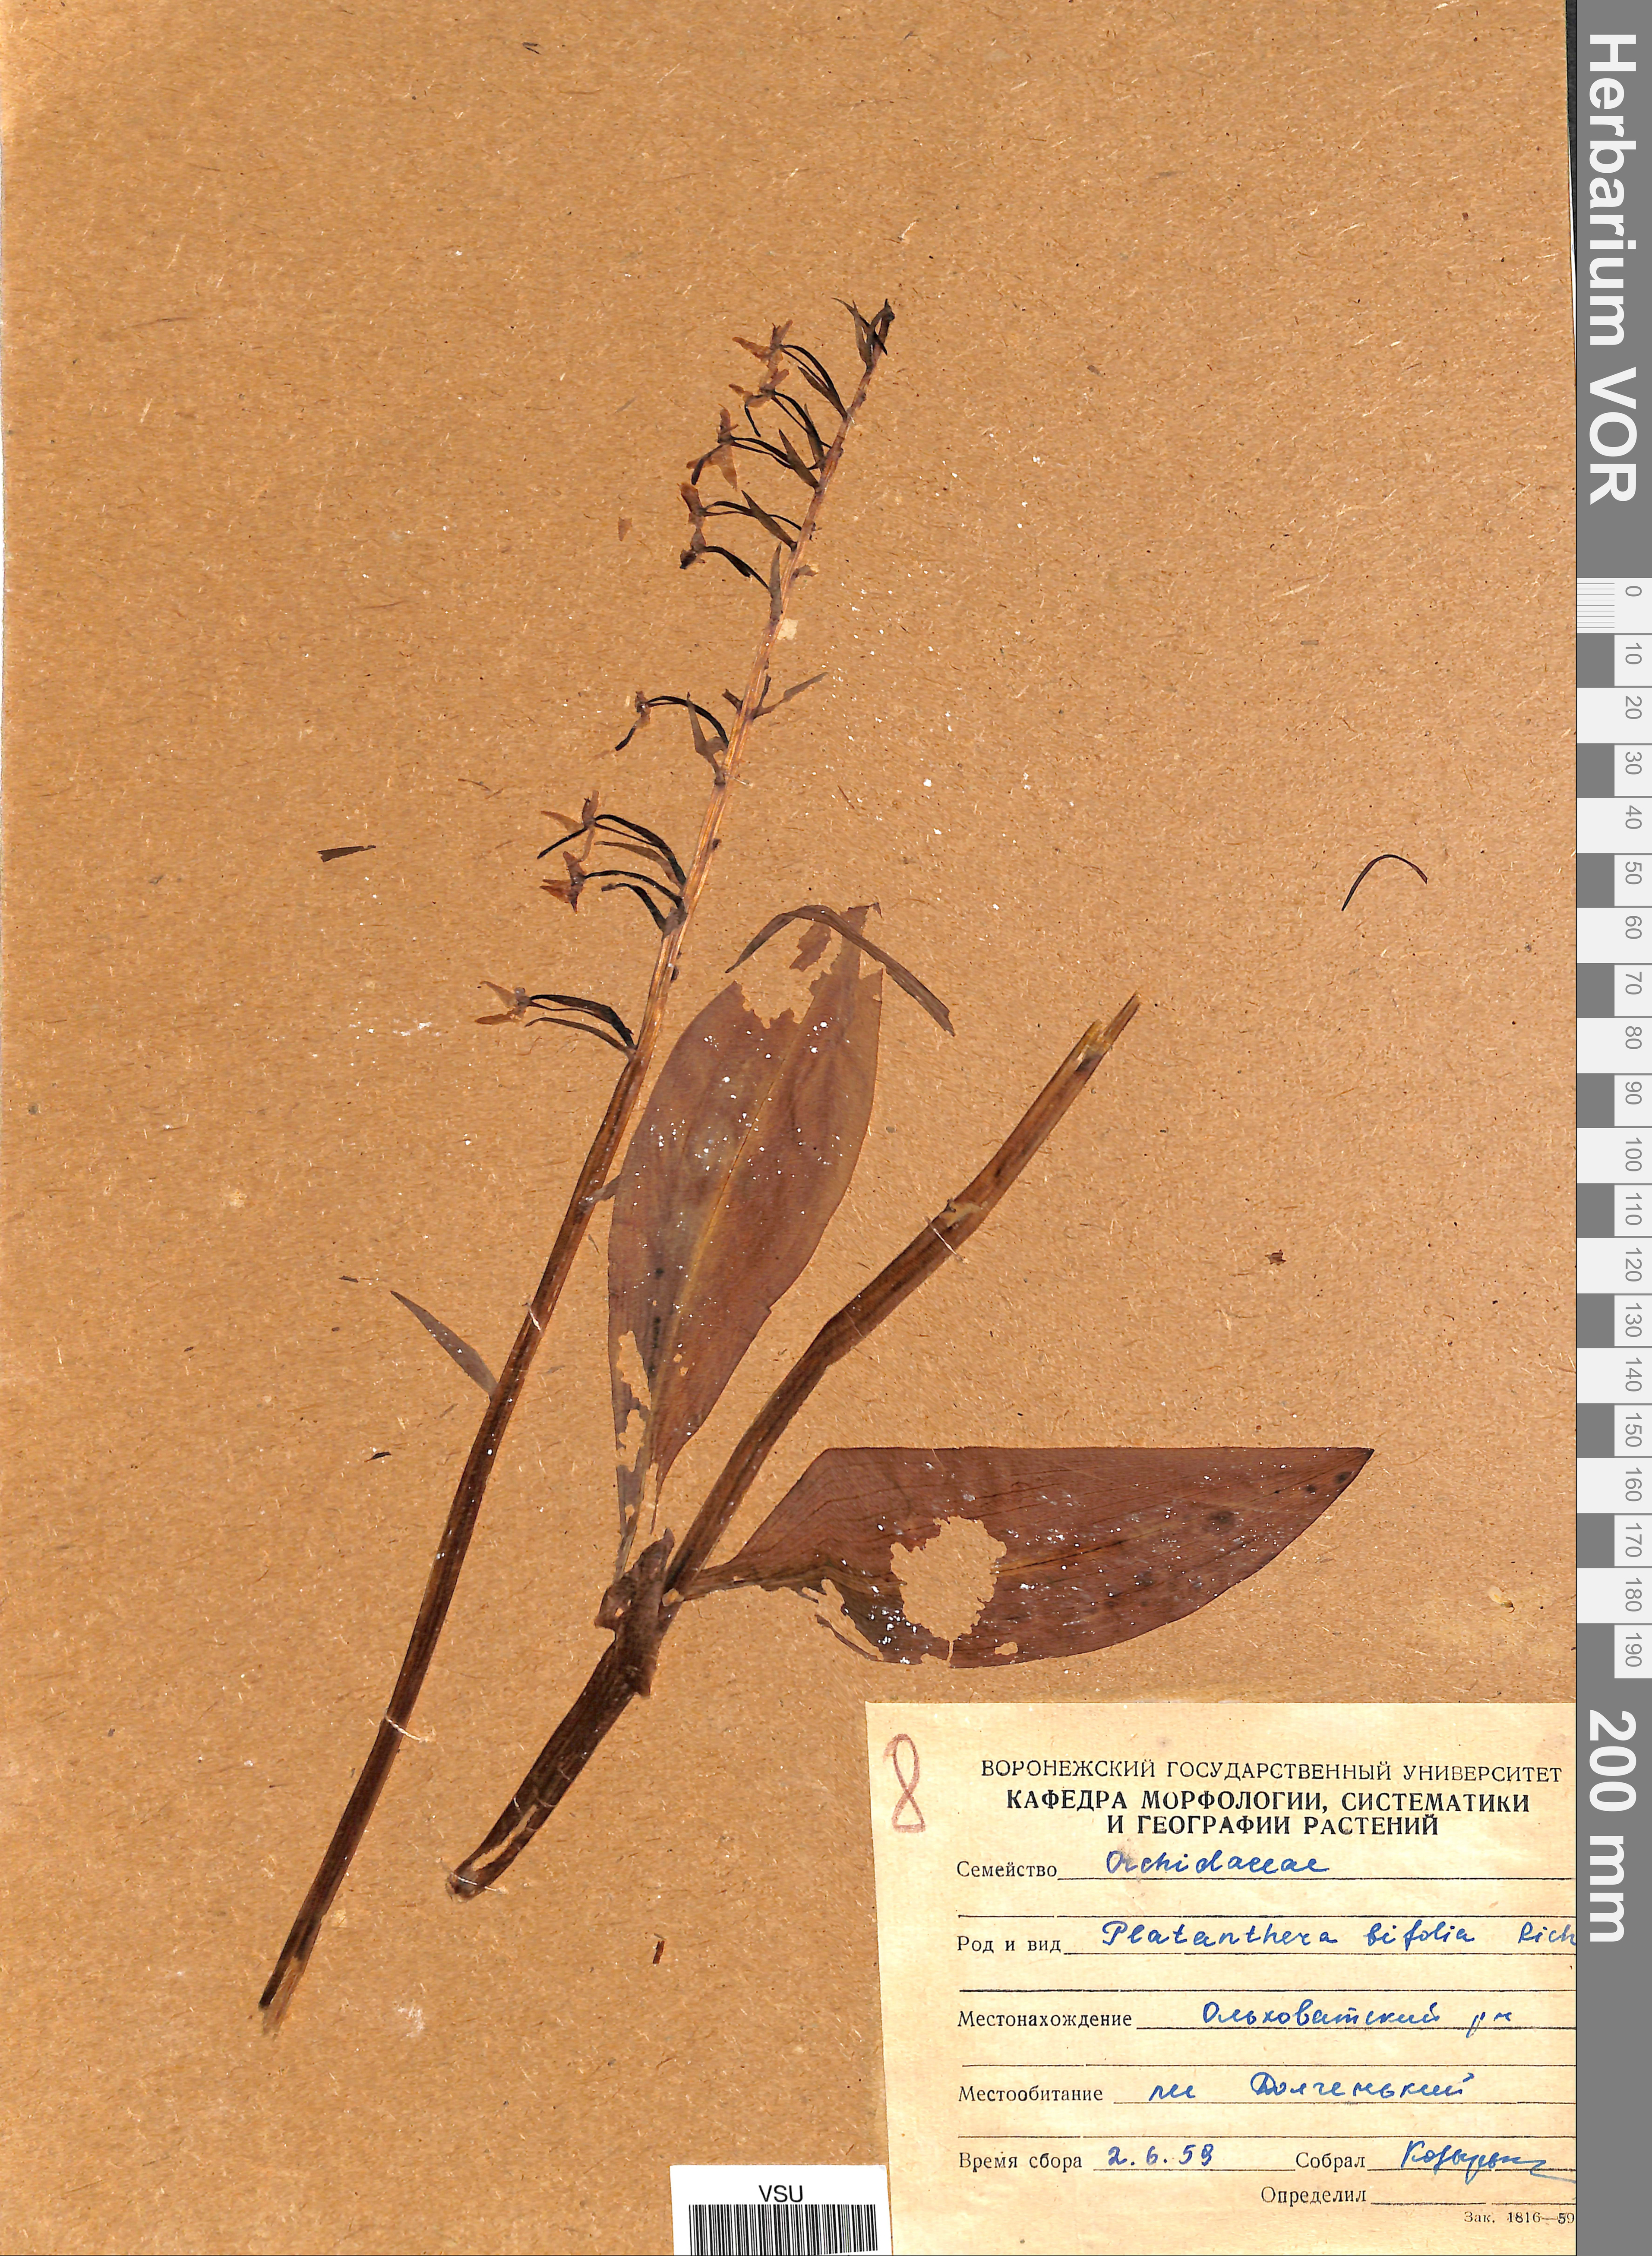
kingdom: Plantae
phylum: Tracheophyta
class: Liliopsida
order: Asparagales
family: Orchidaceae
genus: Platanthera
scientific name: Platanthera bifolia
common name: Lesser butterfly-orchid
